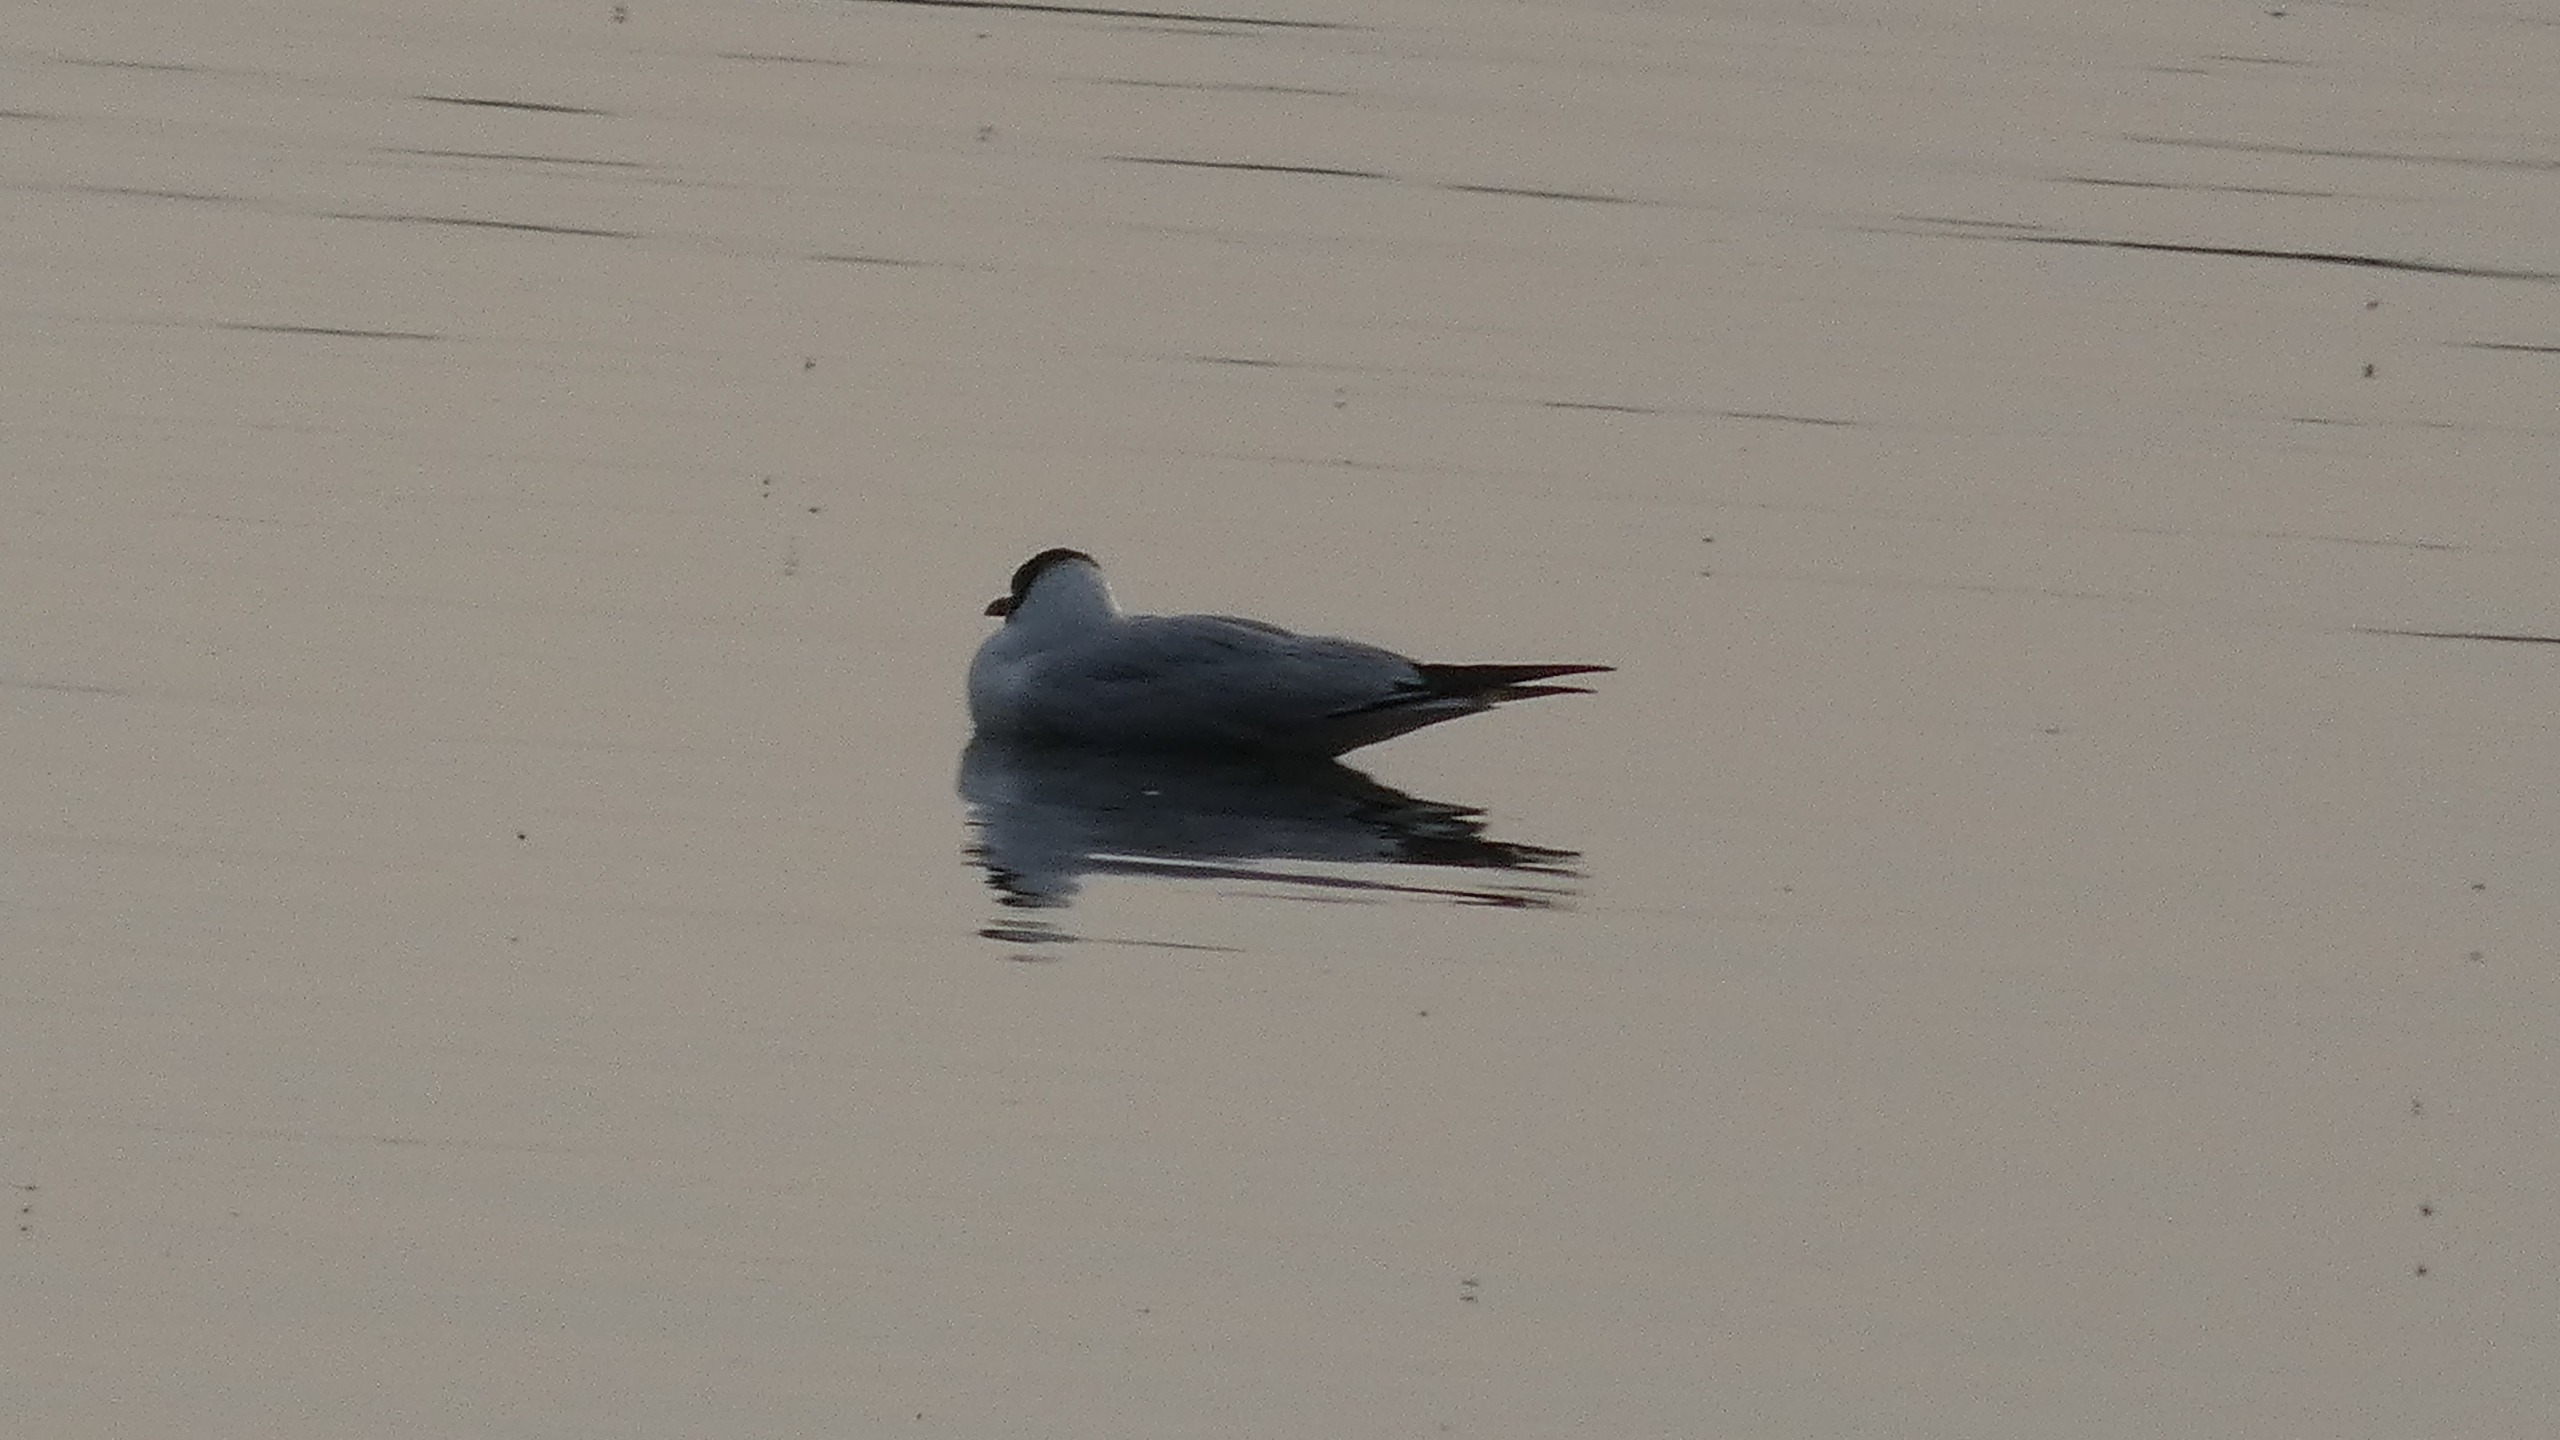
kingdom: Animalia
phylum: Chordata
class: Aves
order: Charadriiformes
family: Laridae
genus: Chroicocephalus
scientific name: Chroicocephalus ridibundus
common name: Hættemåge
